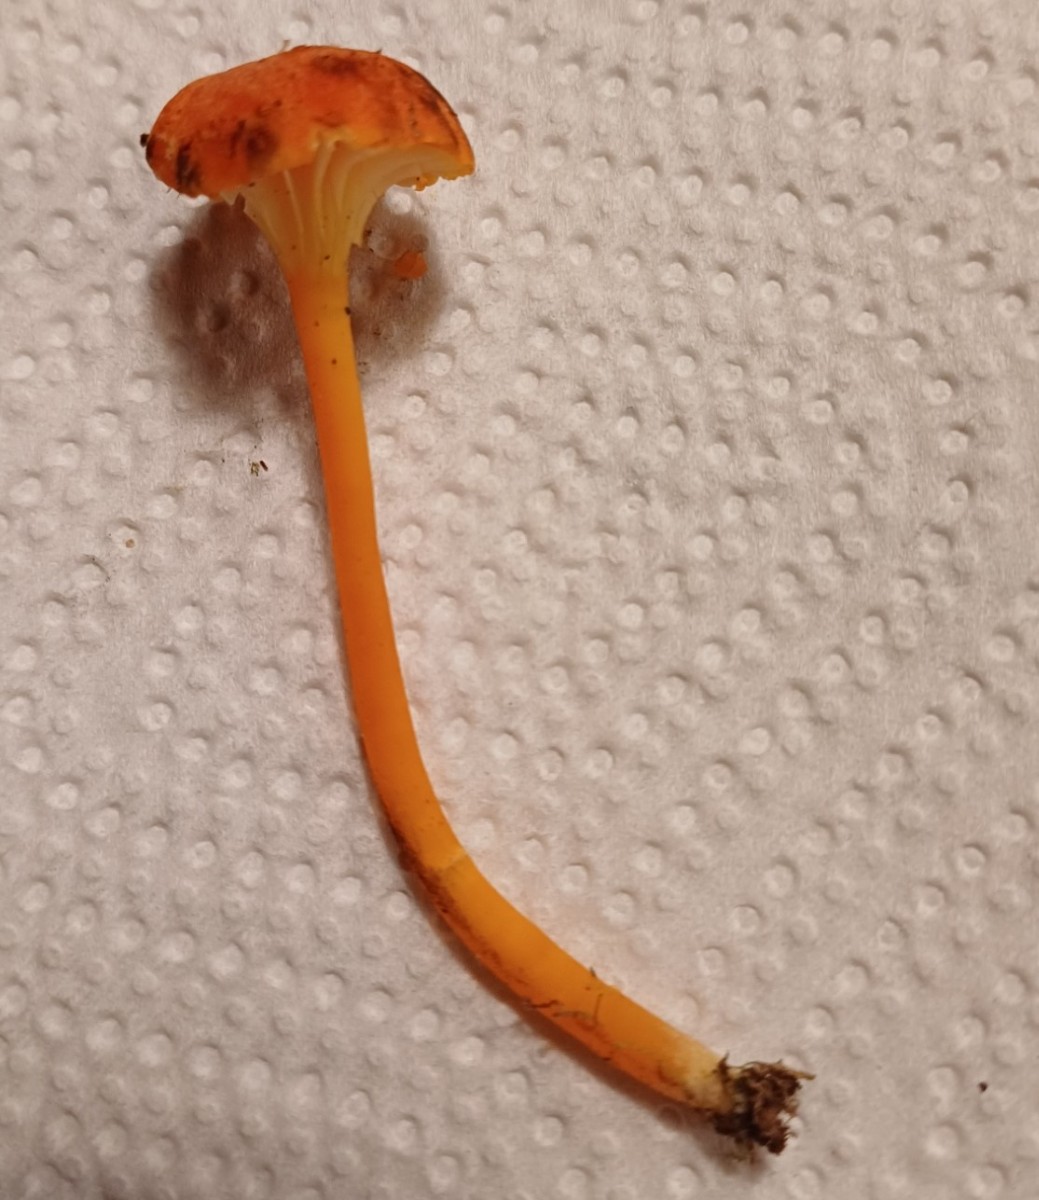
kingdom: Fungi
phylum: Basidiomycota
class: Agaricomycetes
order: Agaricales
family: Hygrophoraceae
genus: Hygrocybe
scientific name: Hygrocybe cantharellus
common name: kantarel-vokshat
